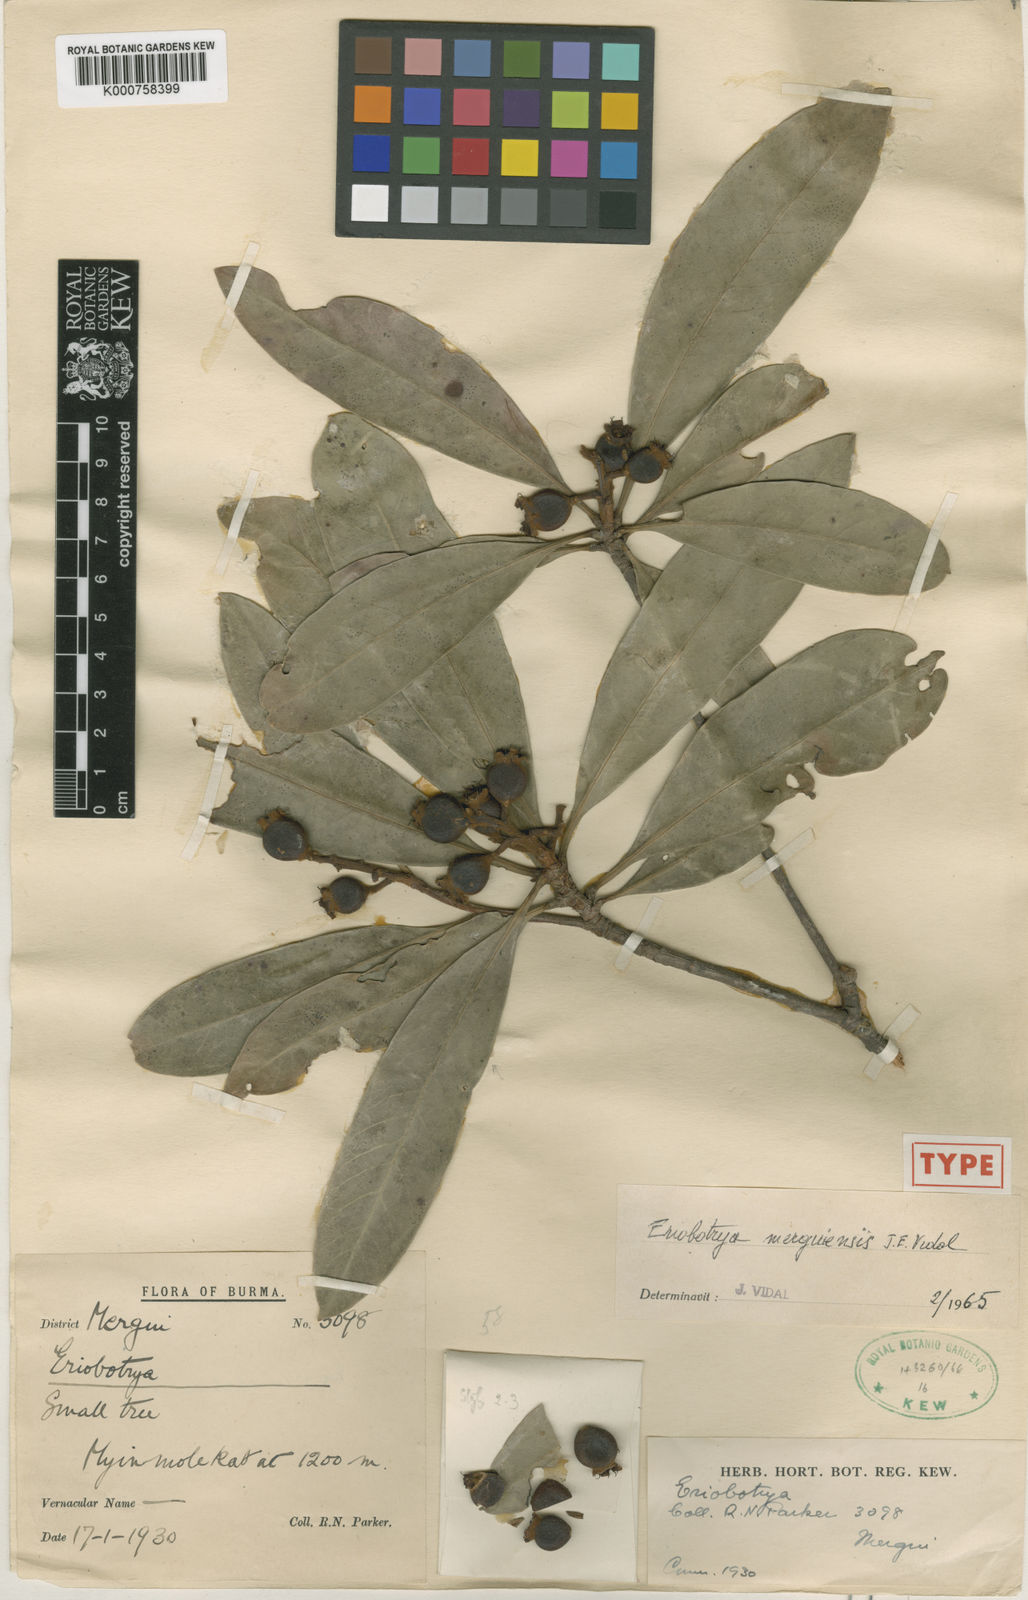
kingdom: Plantae
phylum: Tracheophyta
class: Magnoliopsida
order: Rosales
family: Rosaceae
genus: Rhaphiolepis
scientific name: Rhaphiolepis merguiensis
